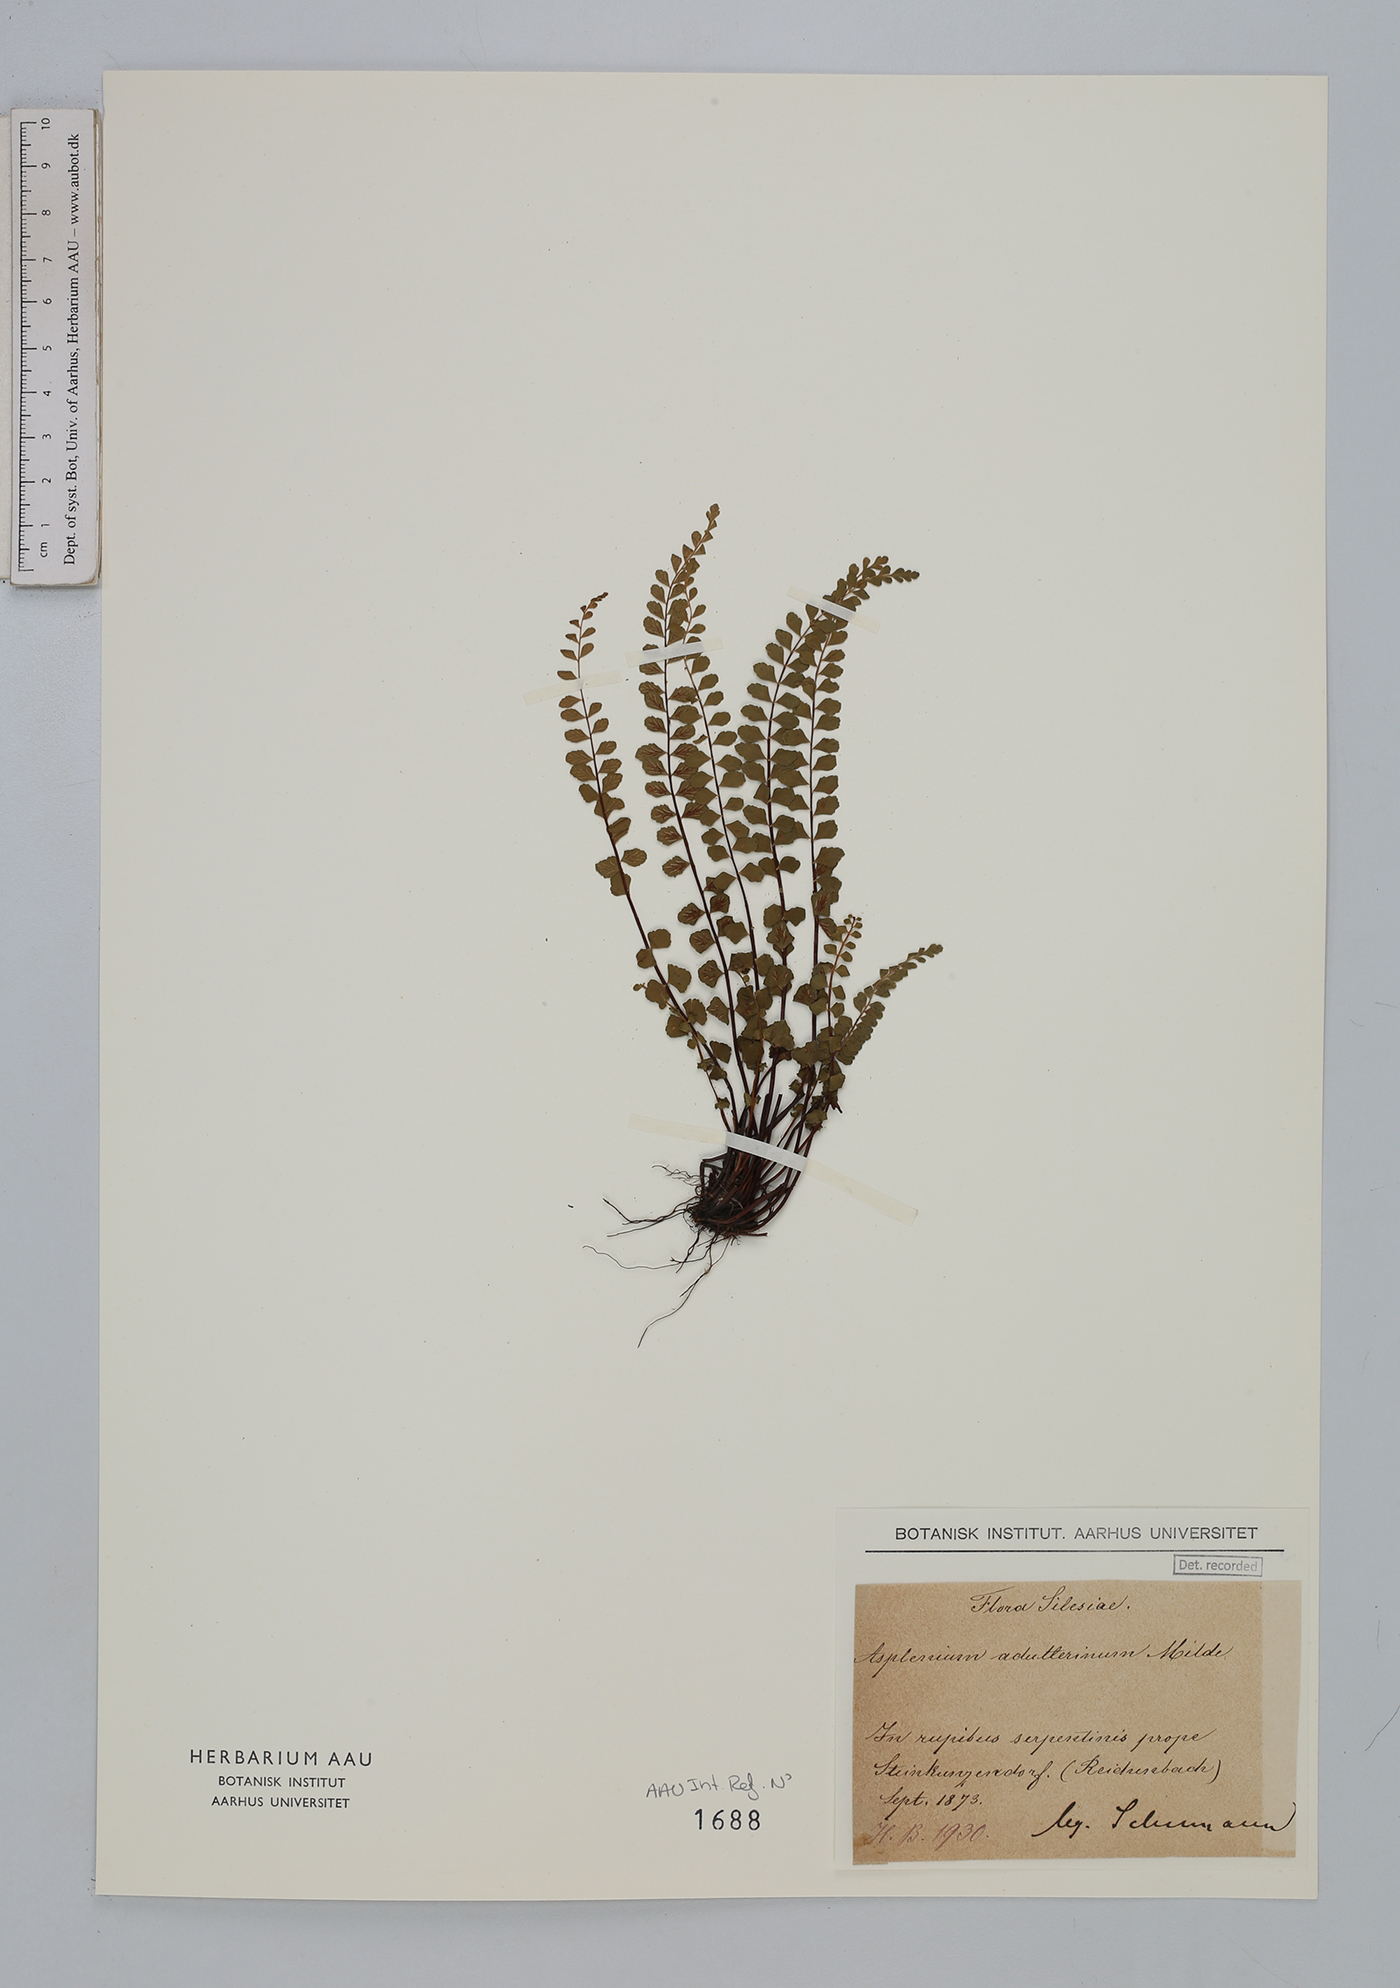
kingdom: Plantae
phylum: Tracheophyta
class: Polypodiopsida
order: Polypodiales
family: Aspleniaceae
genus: Asplenium
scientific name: Asplenium adulterinum
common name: Adulterated spleenwort
